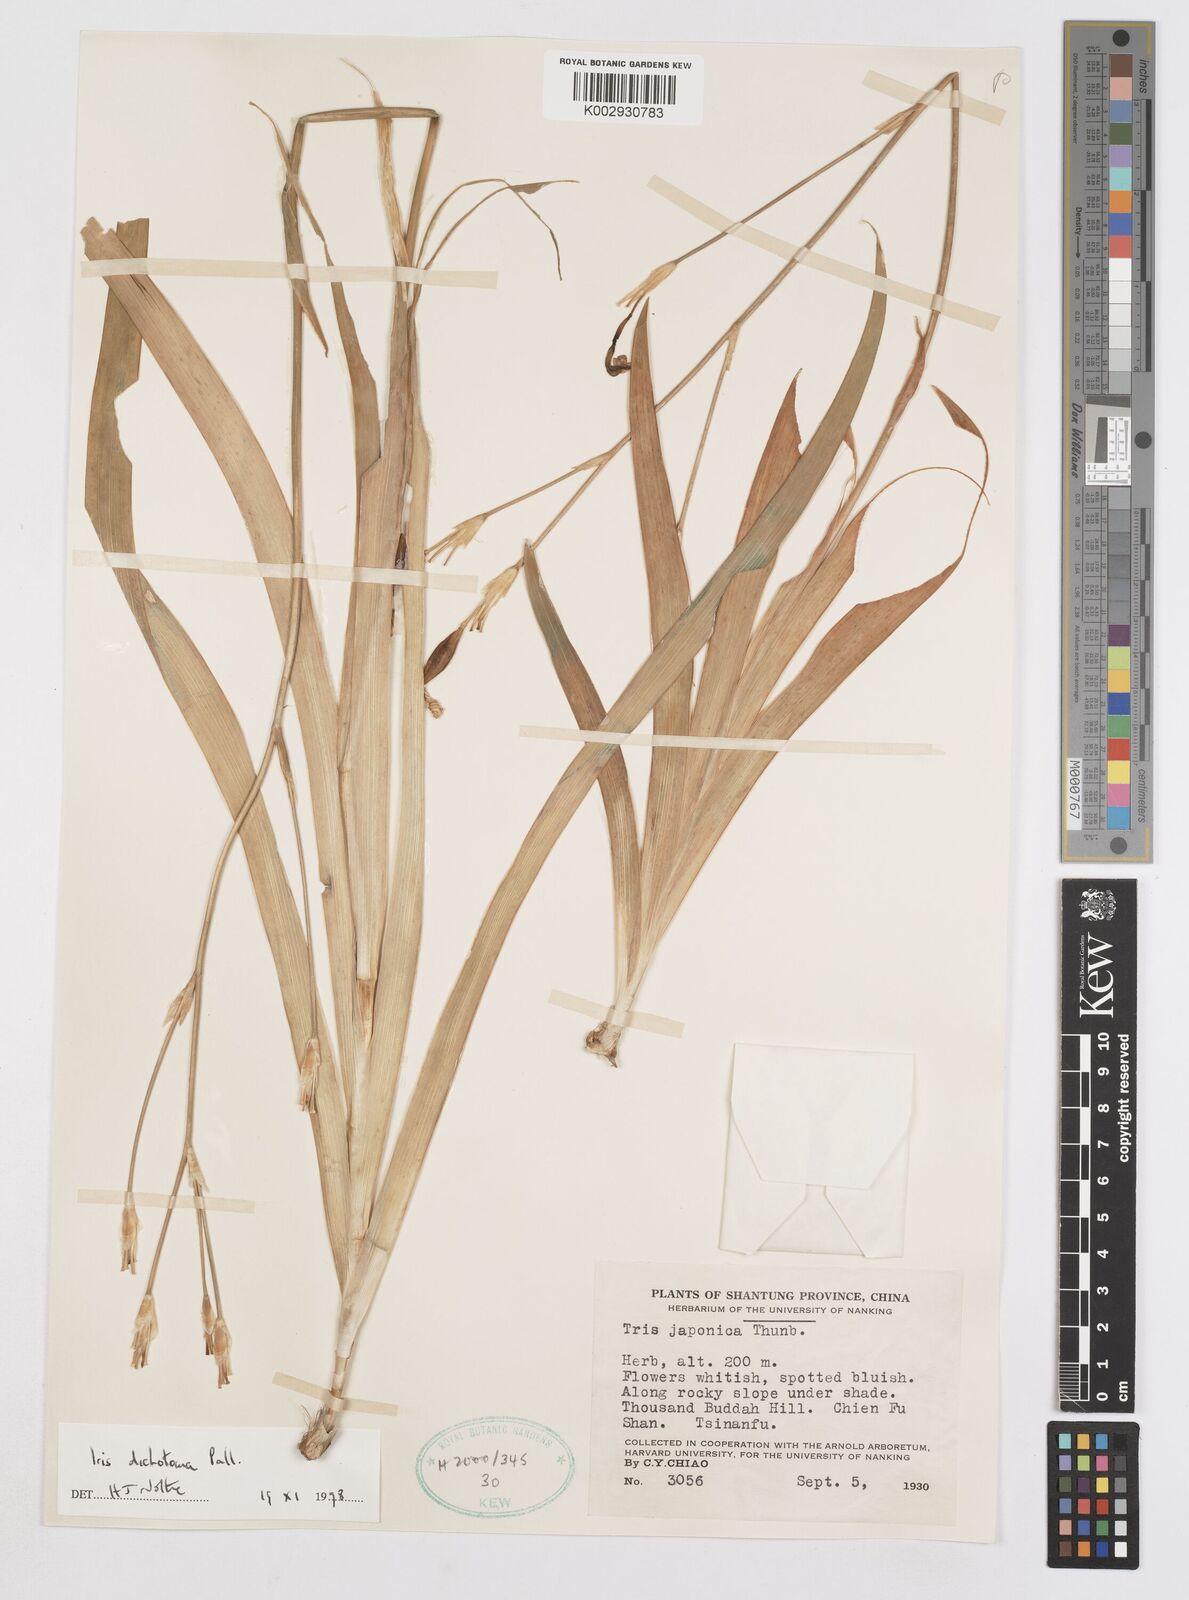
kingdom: Plantae
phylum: Tracheophyta
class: Liliopsida
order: Asparagales
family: Iridaceae
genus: Iris
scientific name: Iris japonica
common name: Butterfly-flower
